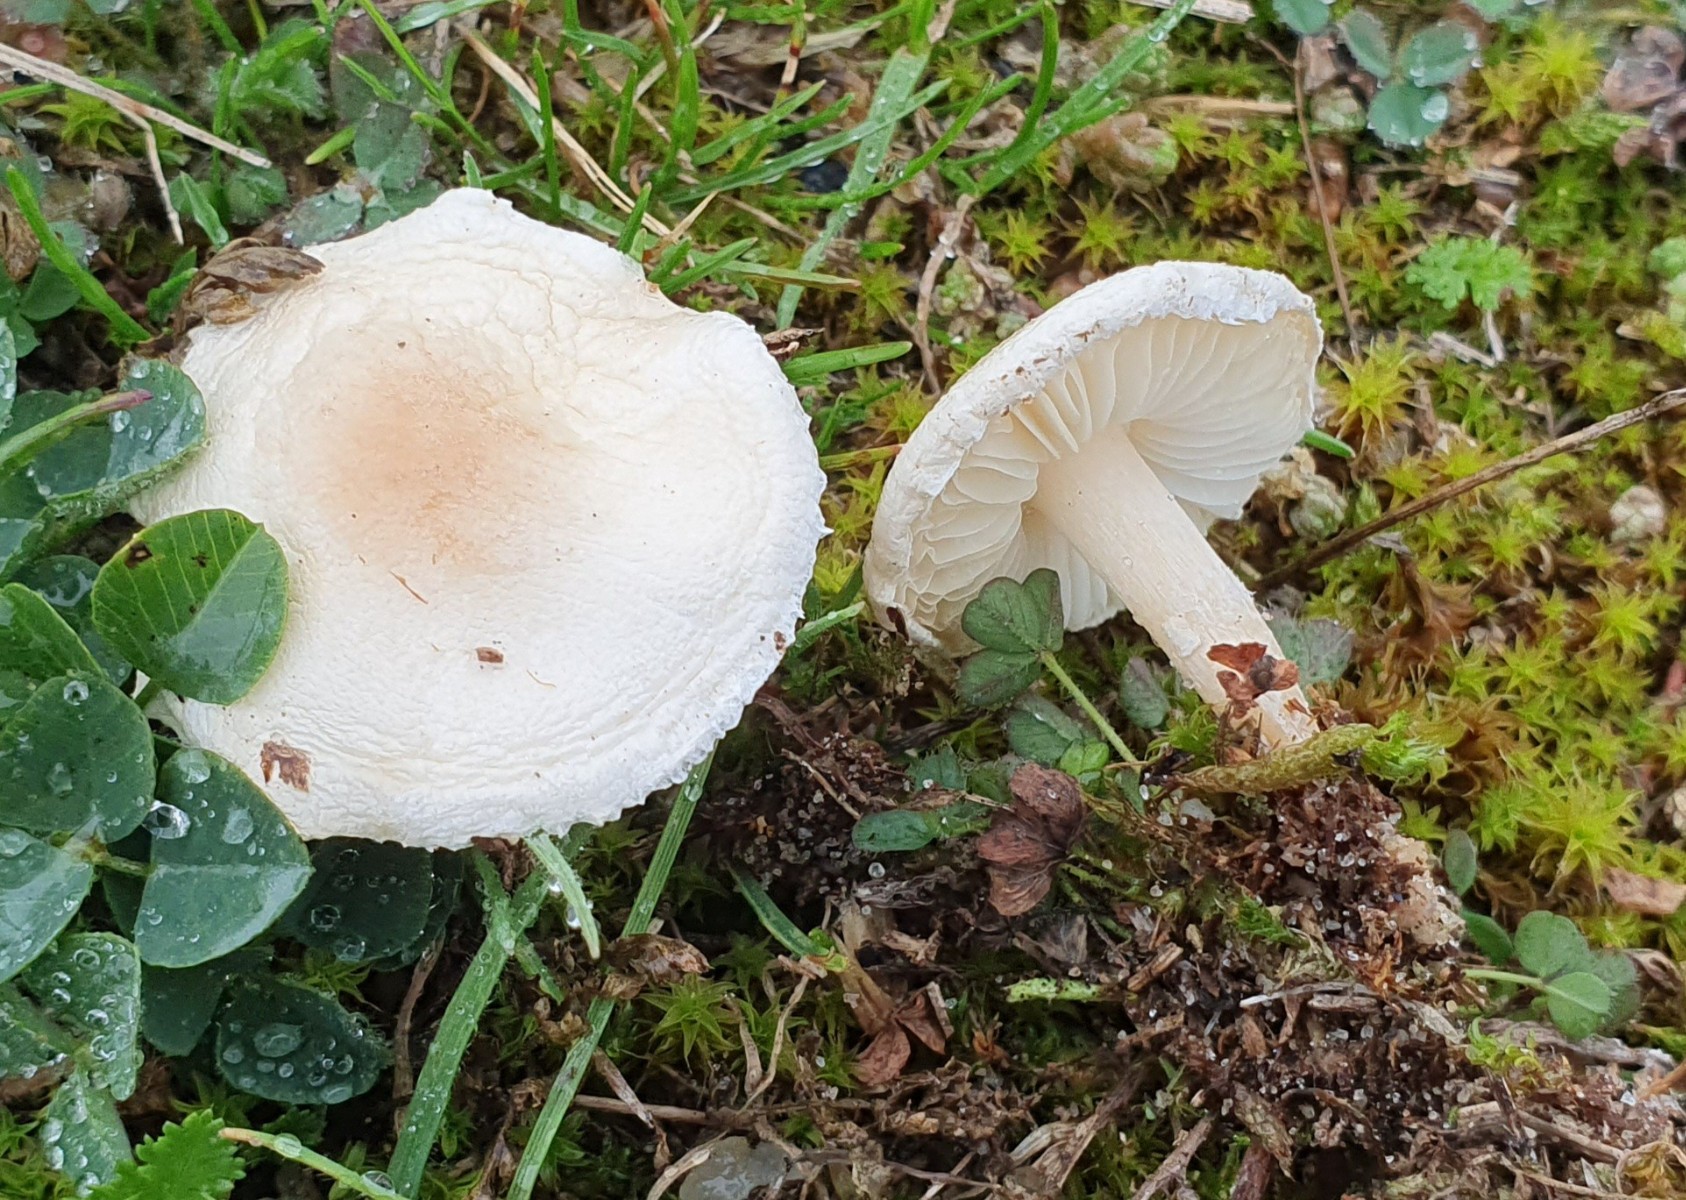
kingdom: Fungi
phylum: Basidiomycota
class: Agaricomycetes
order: Agaricales
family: Agaricaceae
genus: Lepiota
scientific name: Lepiota erminea
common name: hvid parasolhat
